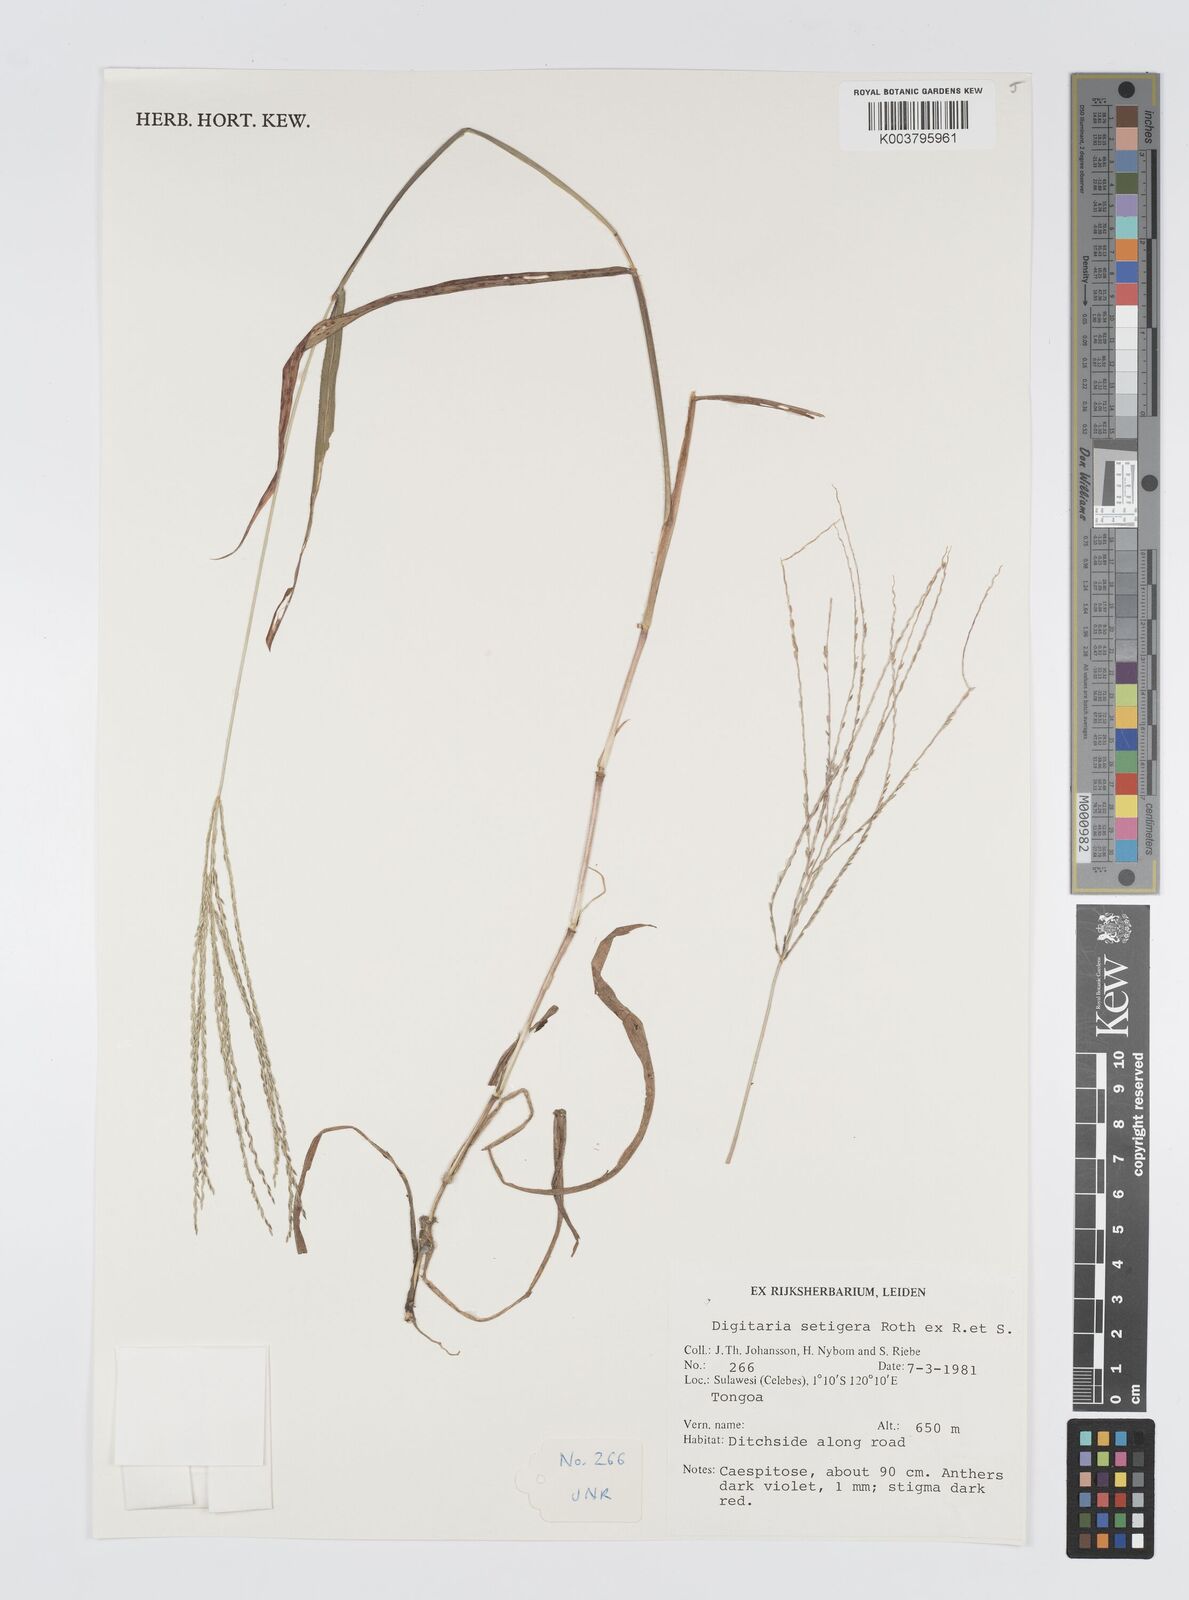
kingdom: Plantae
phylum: Tracheophyta
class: Liliopsida
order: Poales
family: Poaceae
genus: Digitaria
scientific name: Digitaria setigera
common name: East indian crabgrass
